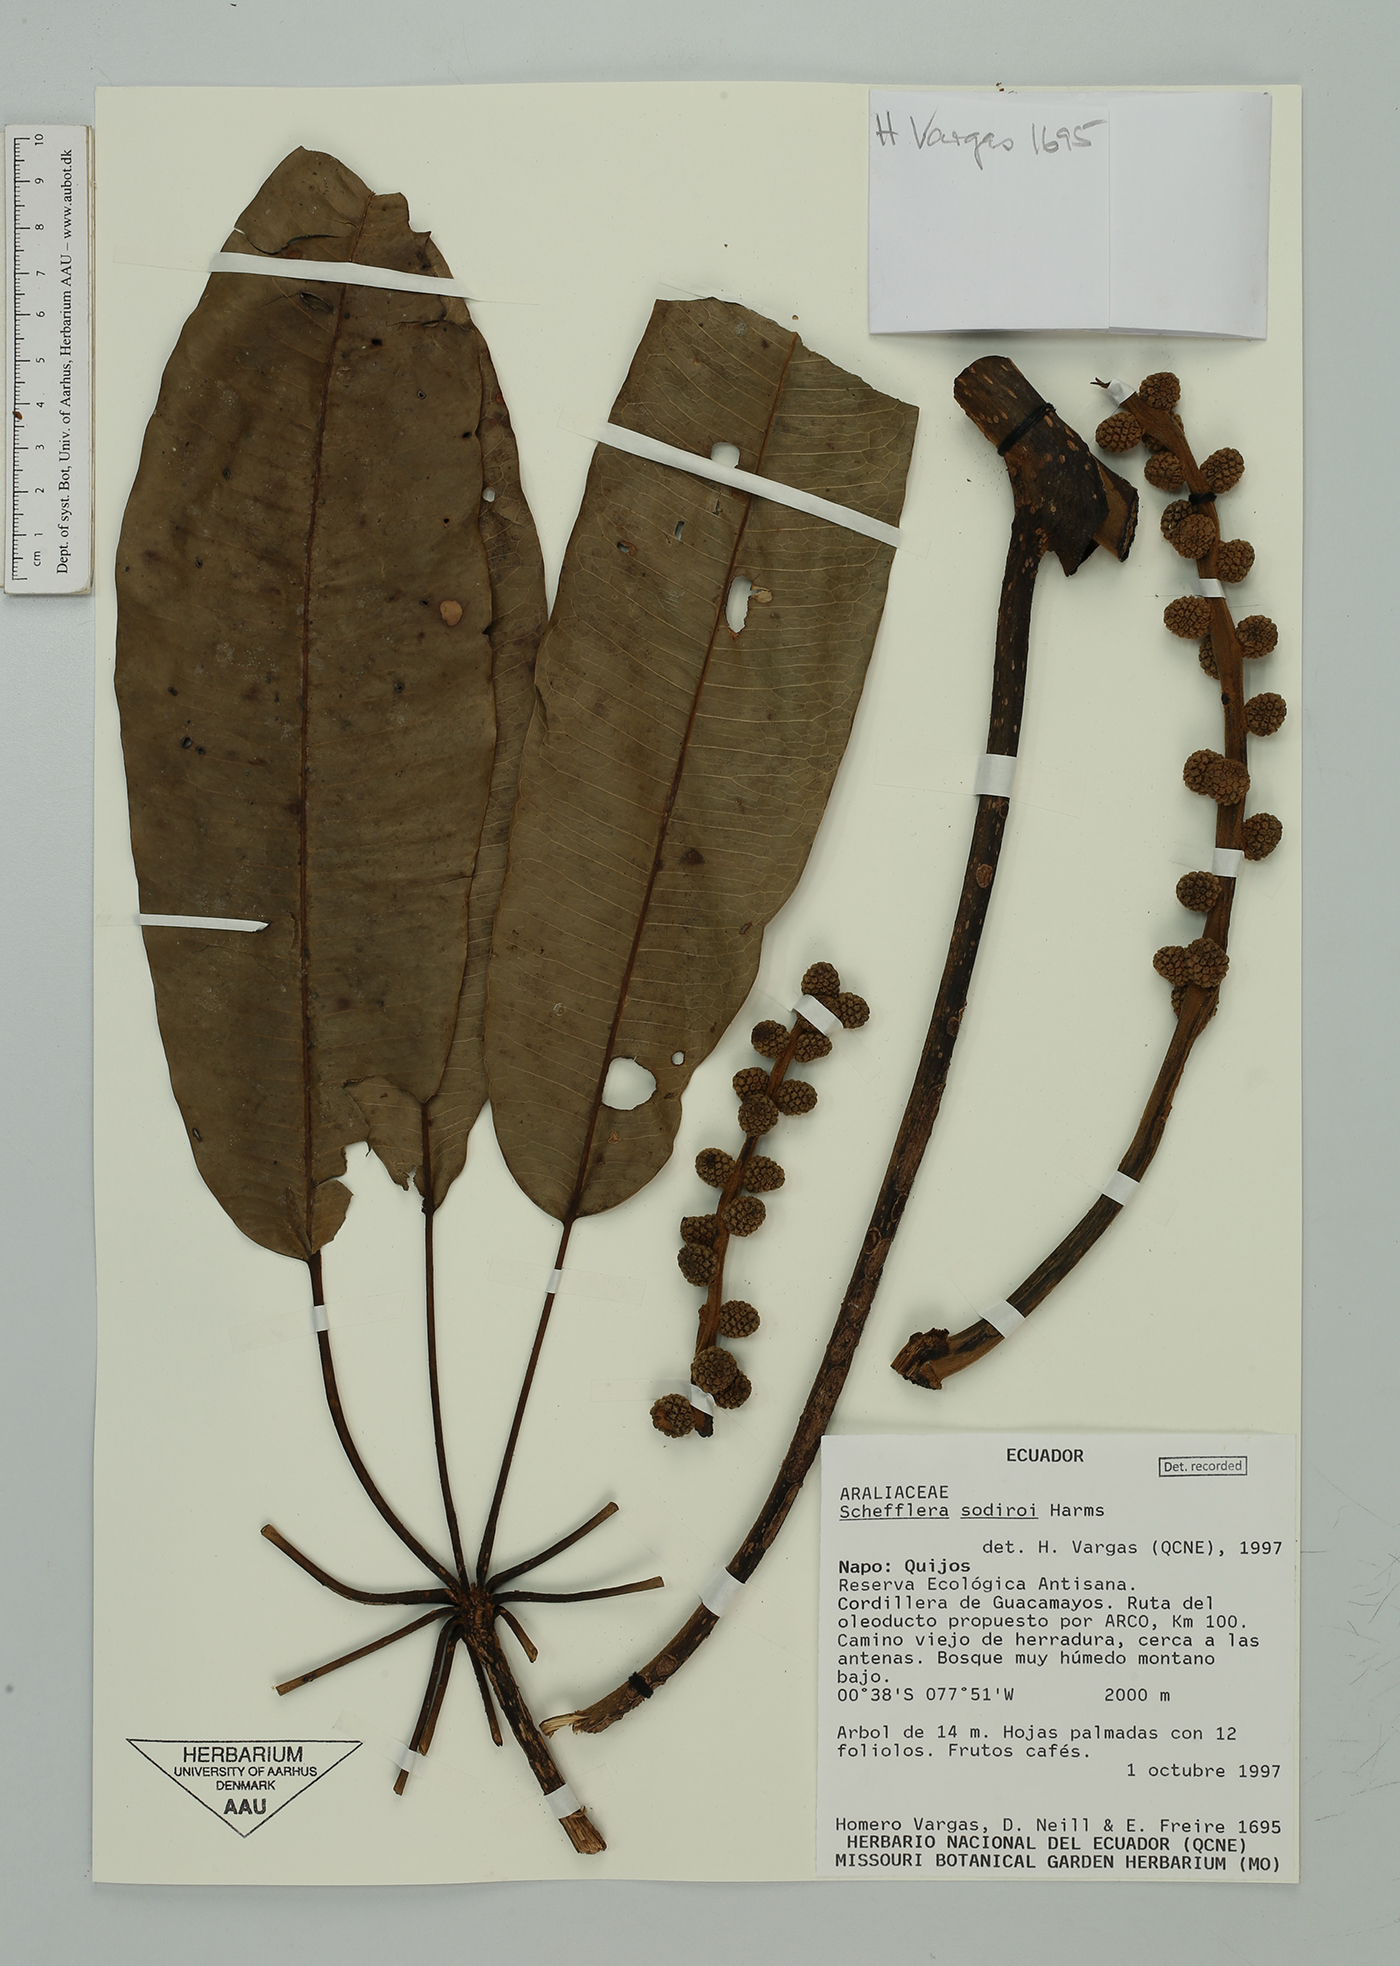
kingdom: Plantae
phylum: Tracheophyta
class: Magnoliopsida
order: Apiales
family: Araliaceae
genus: Sciodaphyllum
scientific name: Sciodaphyllum sodiroi
